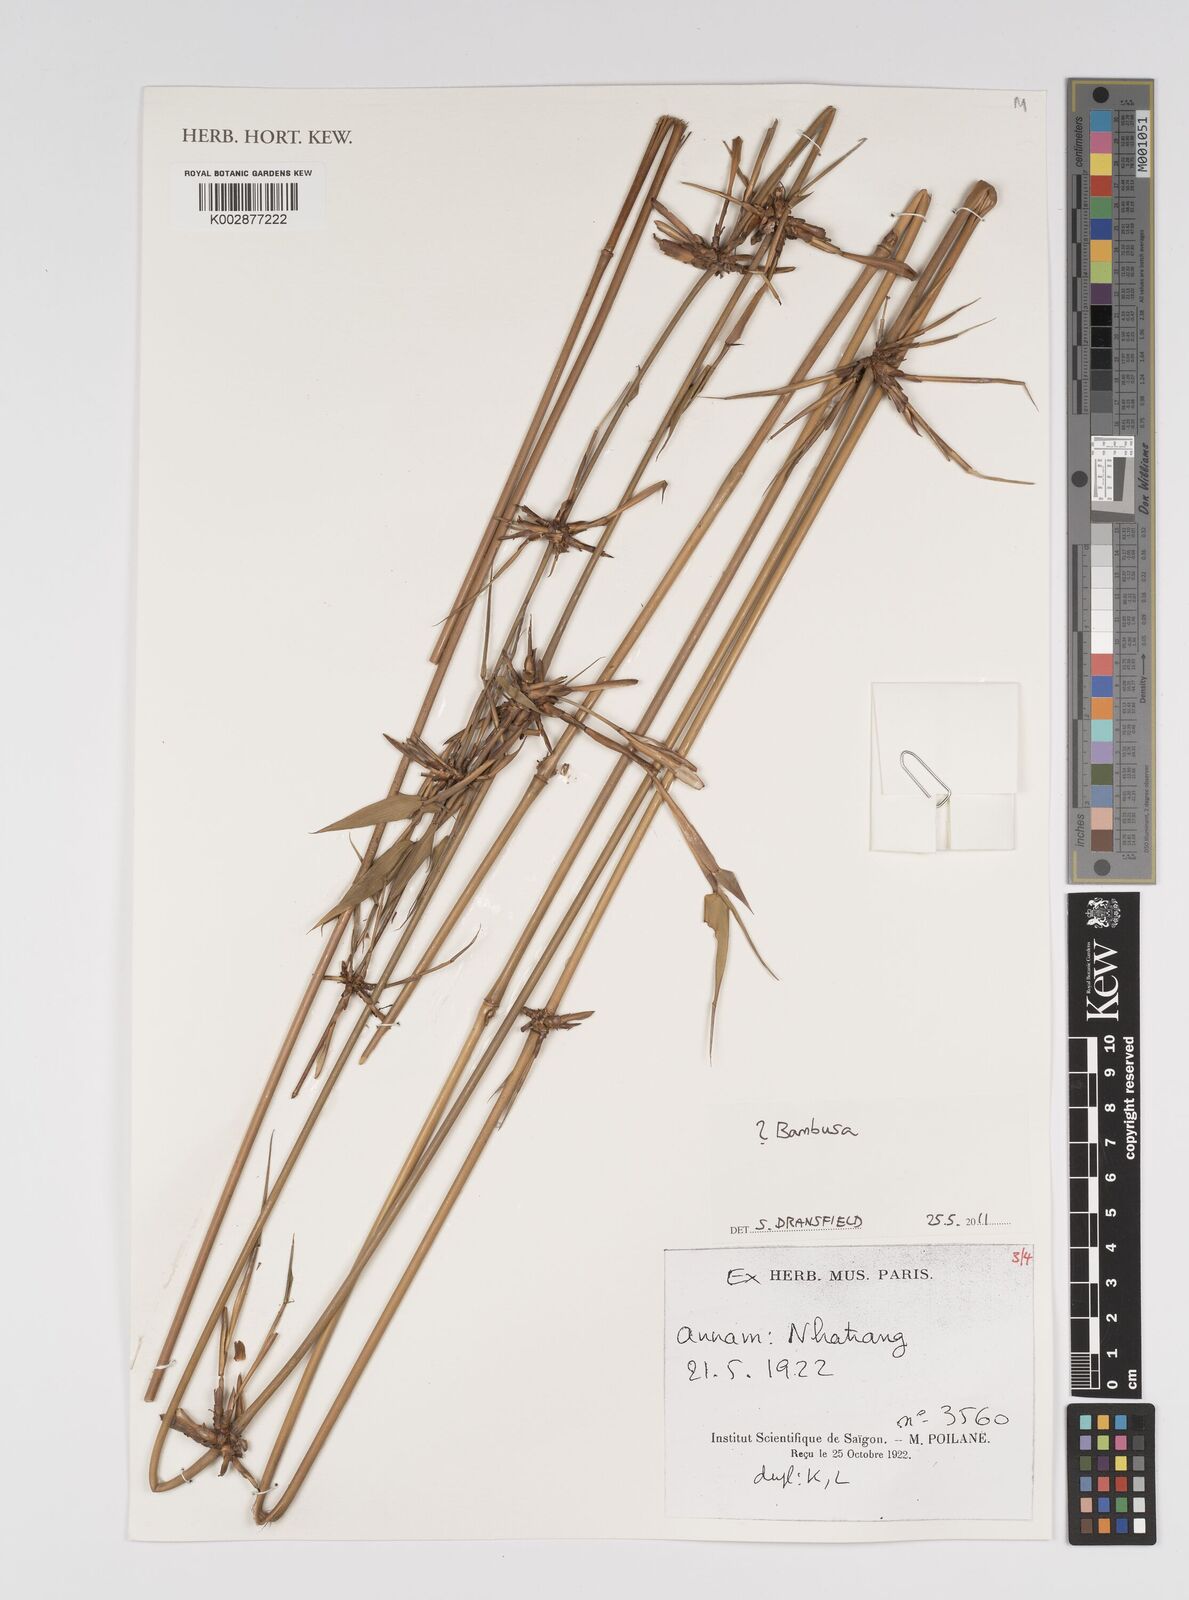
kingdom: Plantae
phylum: Tracheophyta
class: Liliopsida
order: Poales
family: Poaceae
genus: Bambusa
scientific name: Bambusa
